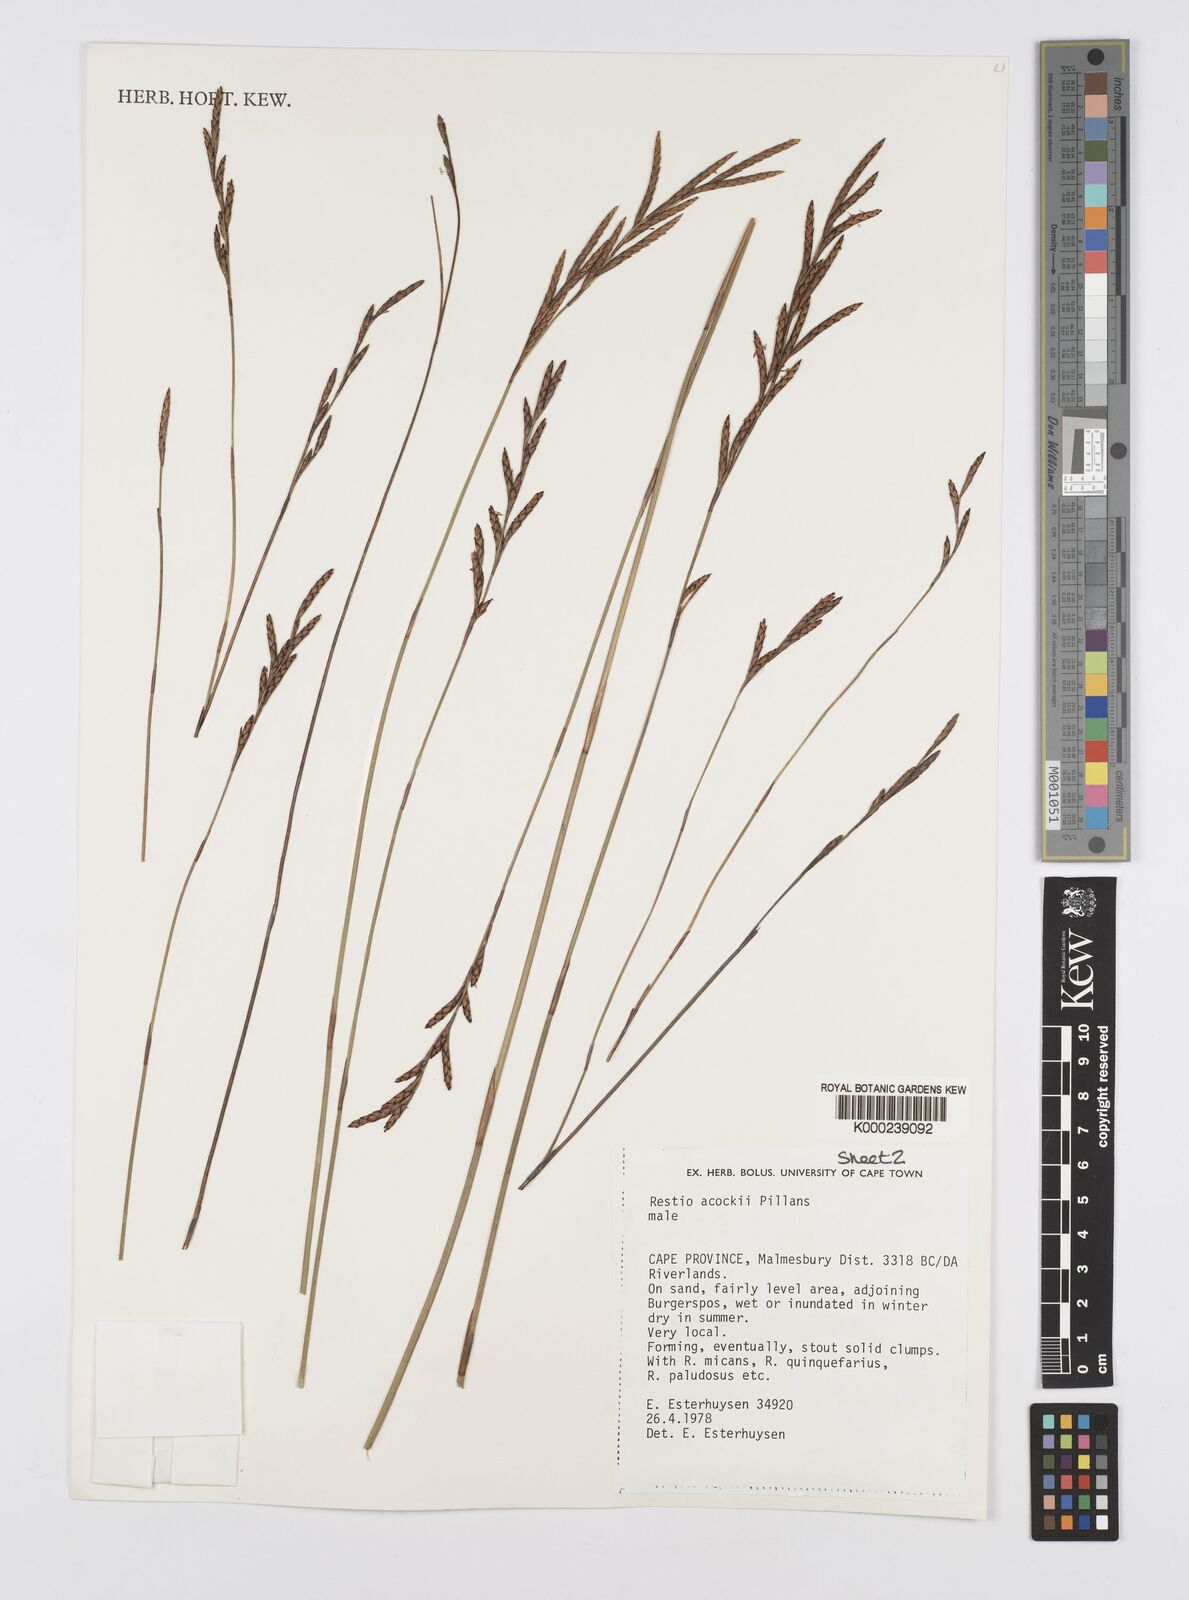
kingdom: Plantae
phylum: Tracheophyta
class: Liliopsida
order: Poales
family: Restionaceae
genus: Restio
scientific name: Restio acockii
